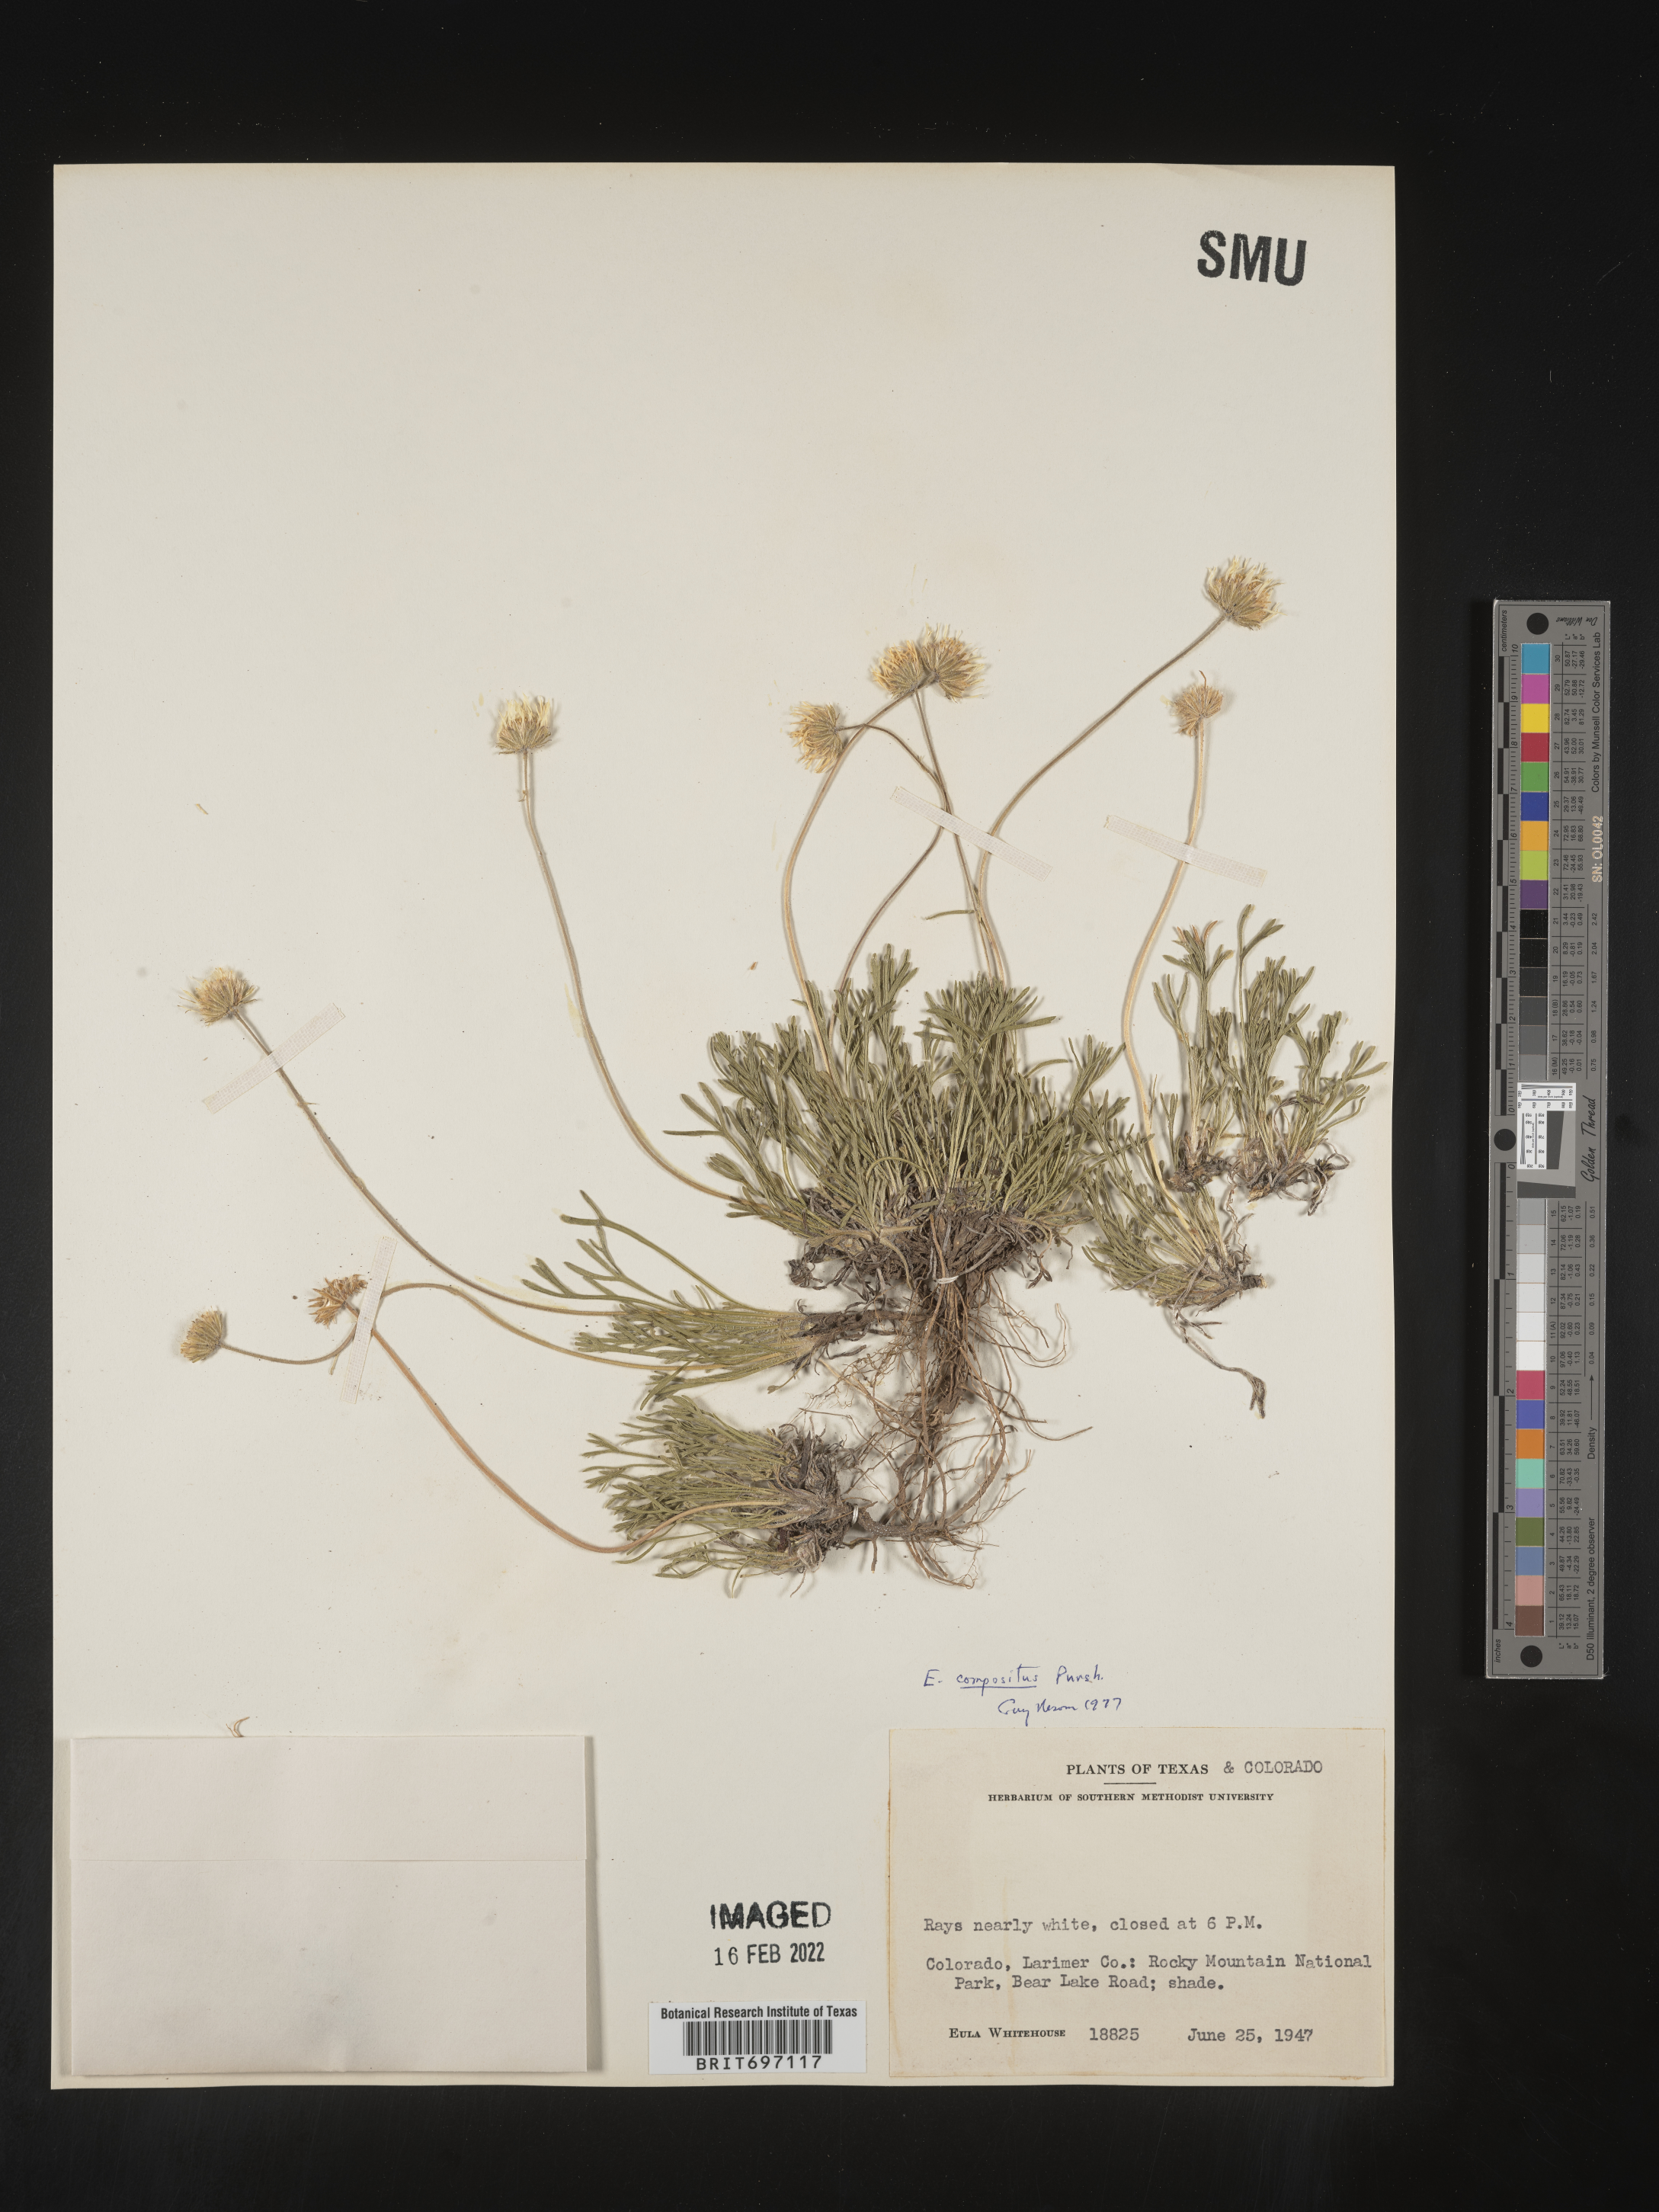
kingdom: Plantae
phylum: Tracheophyta
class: Magnoliopsida
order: Asterales
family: Asteraceae
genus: Erigeron
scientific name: Erigeron compositus
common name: Dwarf mountain fleabane
